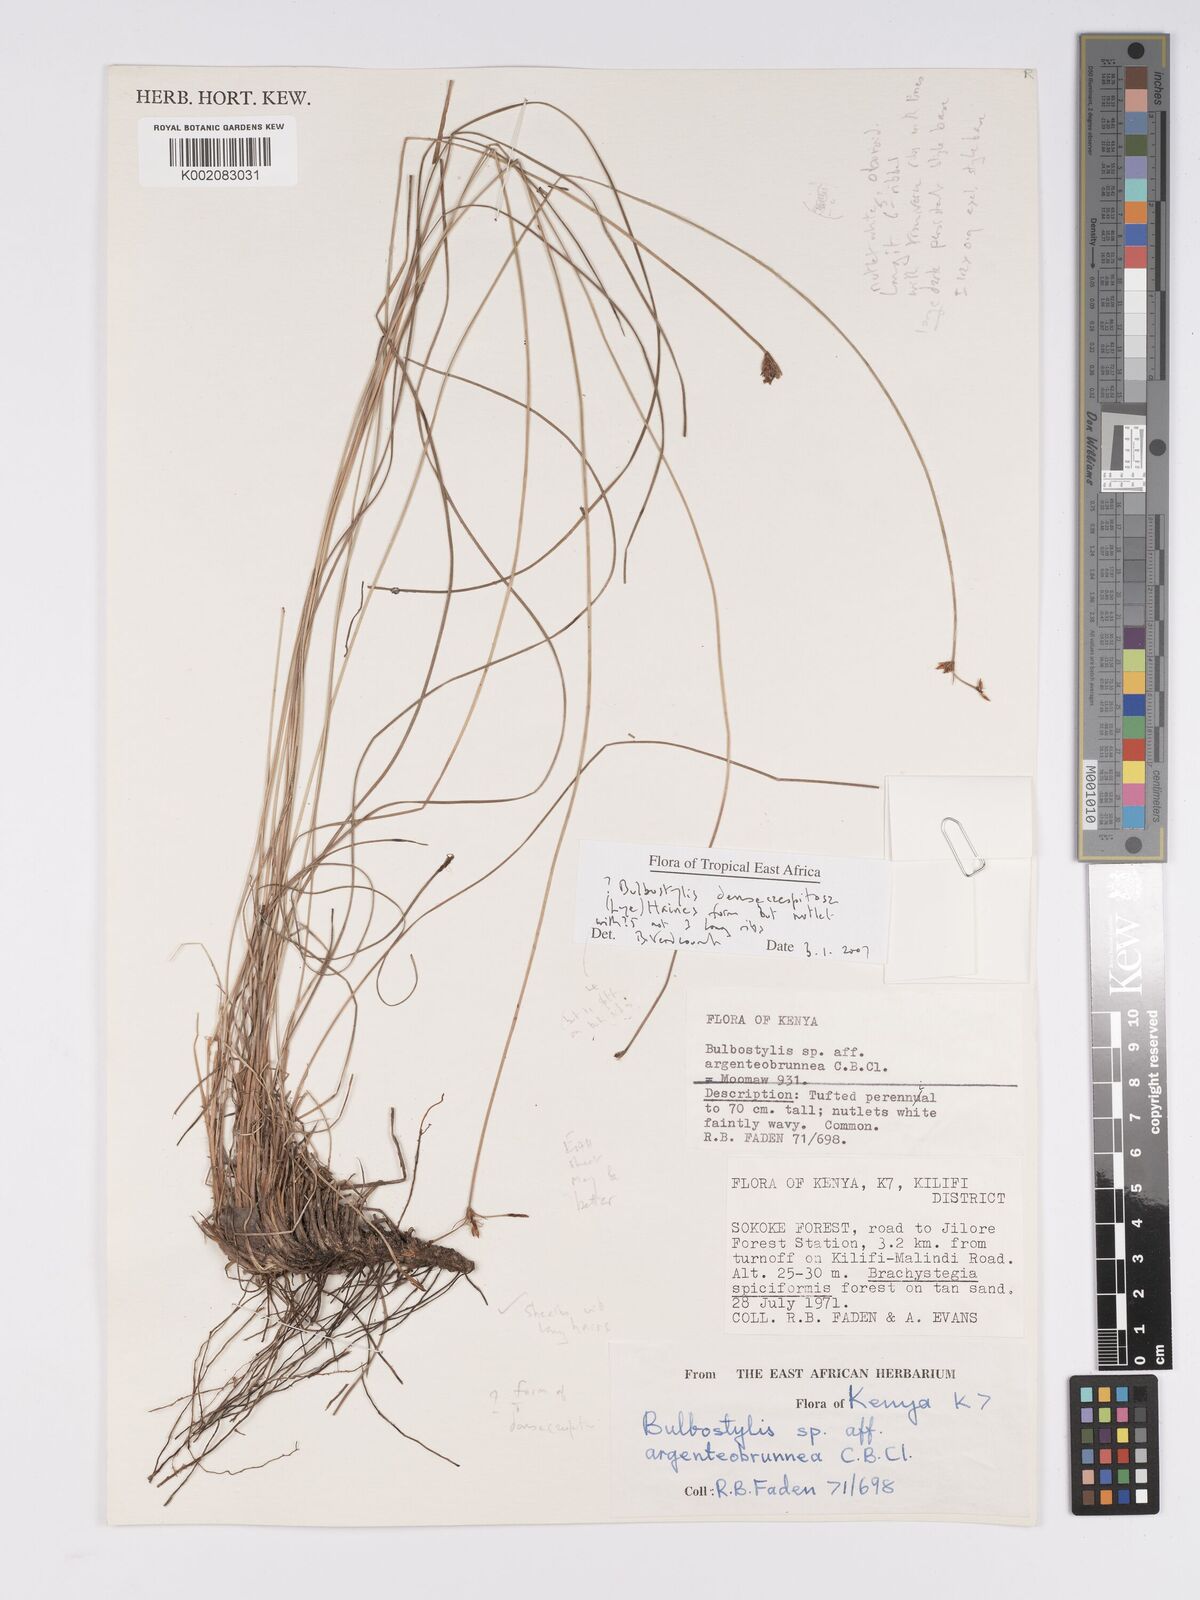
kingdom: Plantae
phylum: Tracheophyta
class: Liliopsida
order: Poales
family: Cyperaceae
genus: Bulbostylis
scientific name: Bulbostylis densicaespitosa
